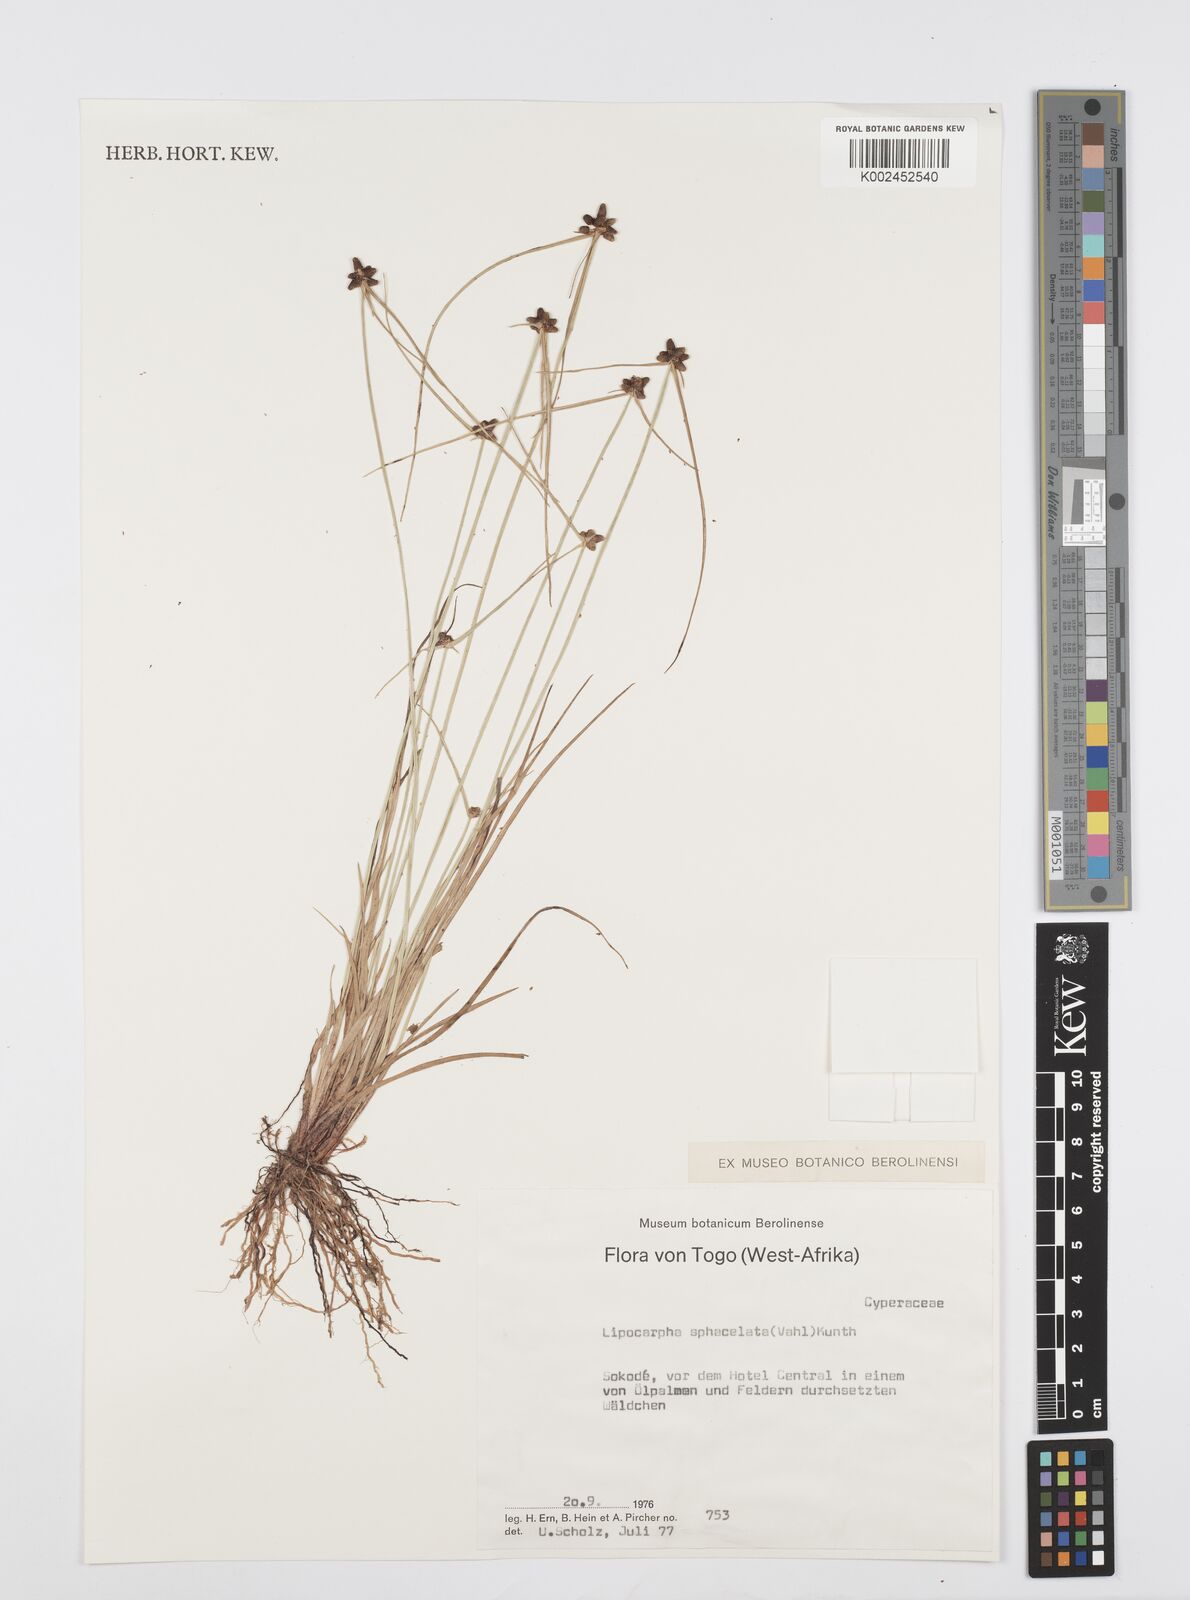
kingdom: Plantae
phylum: Tracheophyta
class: Liliopsida
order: Poales
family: Cyperaceae
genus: Cyperus
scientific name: Cyperus filiformis
